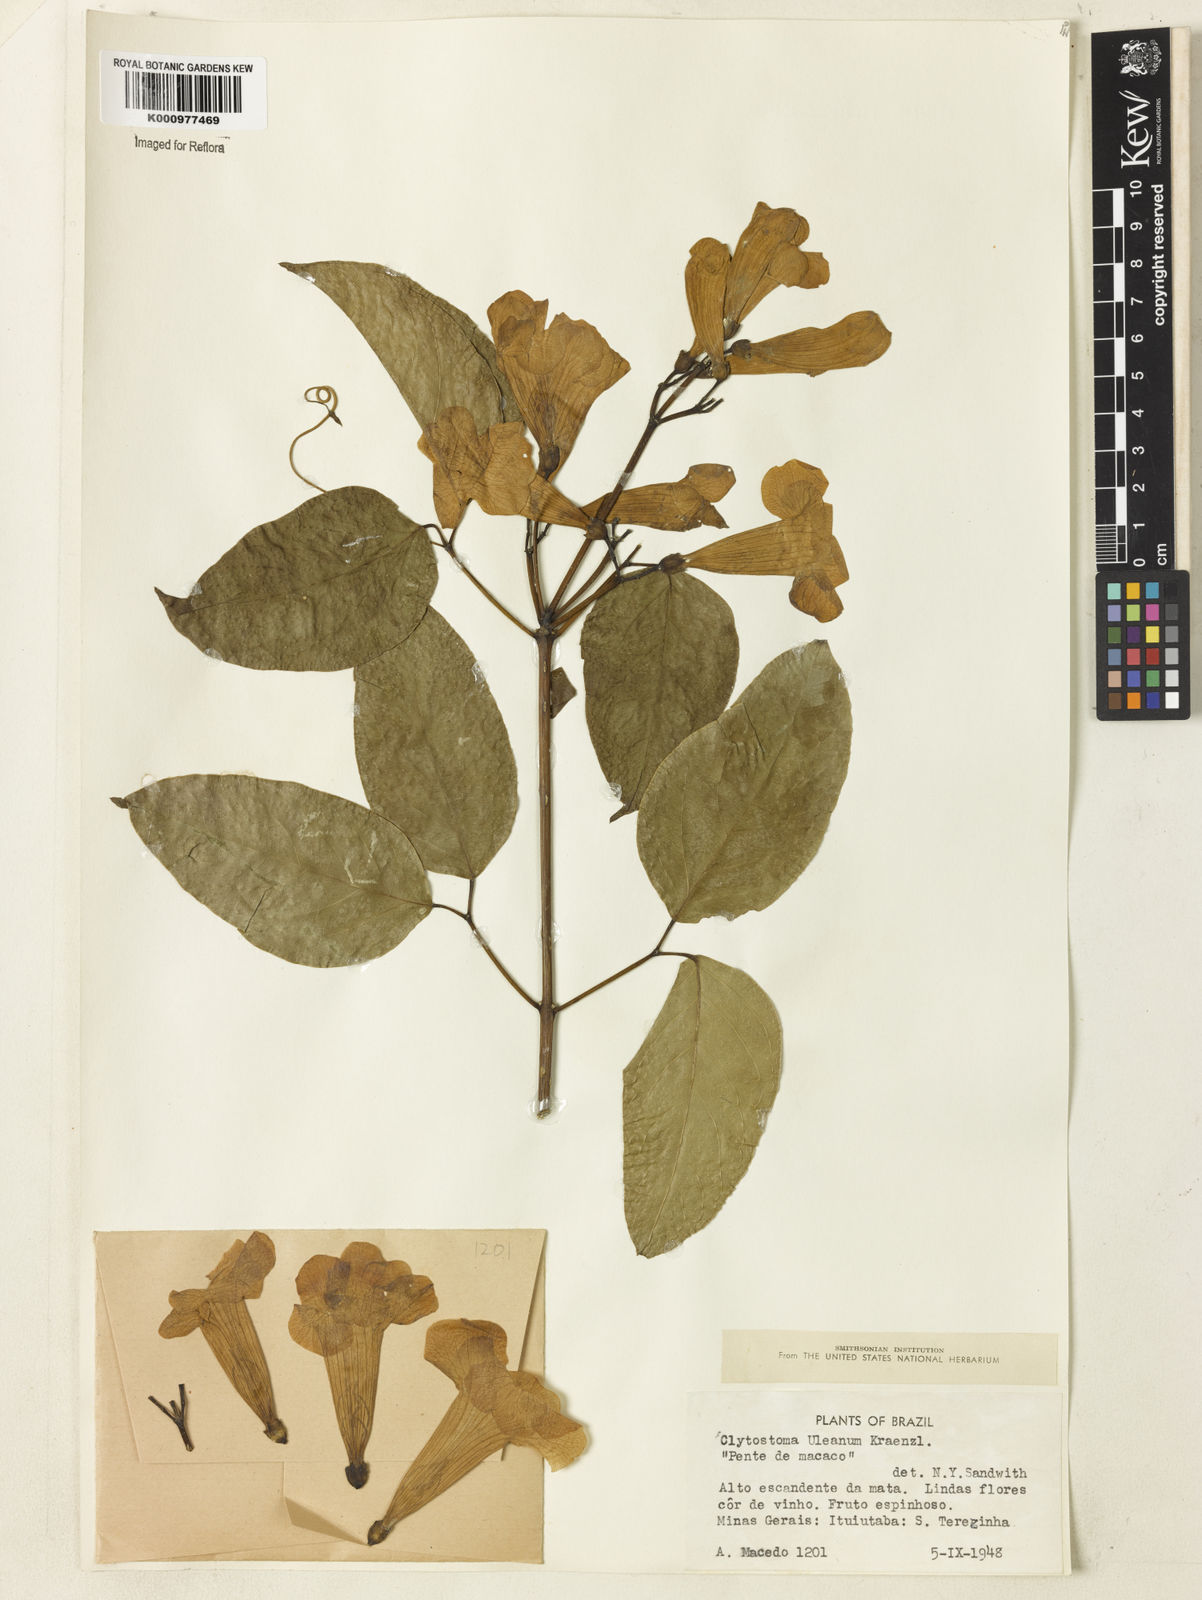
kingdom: Plantae
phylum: Tracheophyta
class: Magnoliopsida
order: Lamiales
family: Bignoniaceae
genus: Bignonia
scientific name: Bignonia uleana
